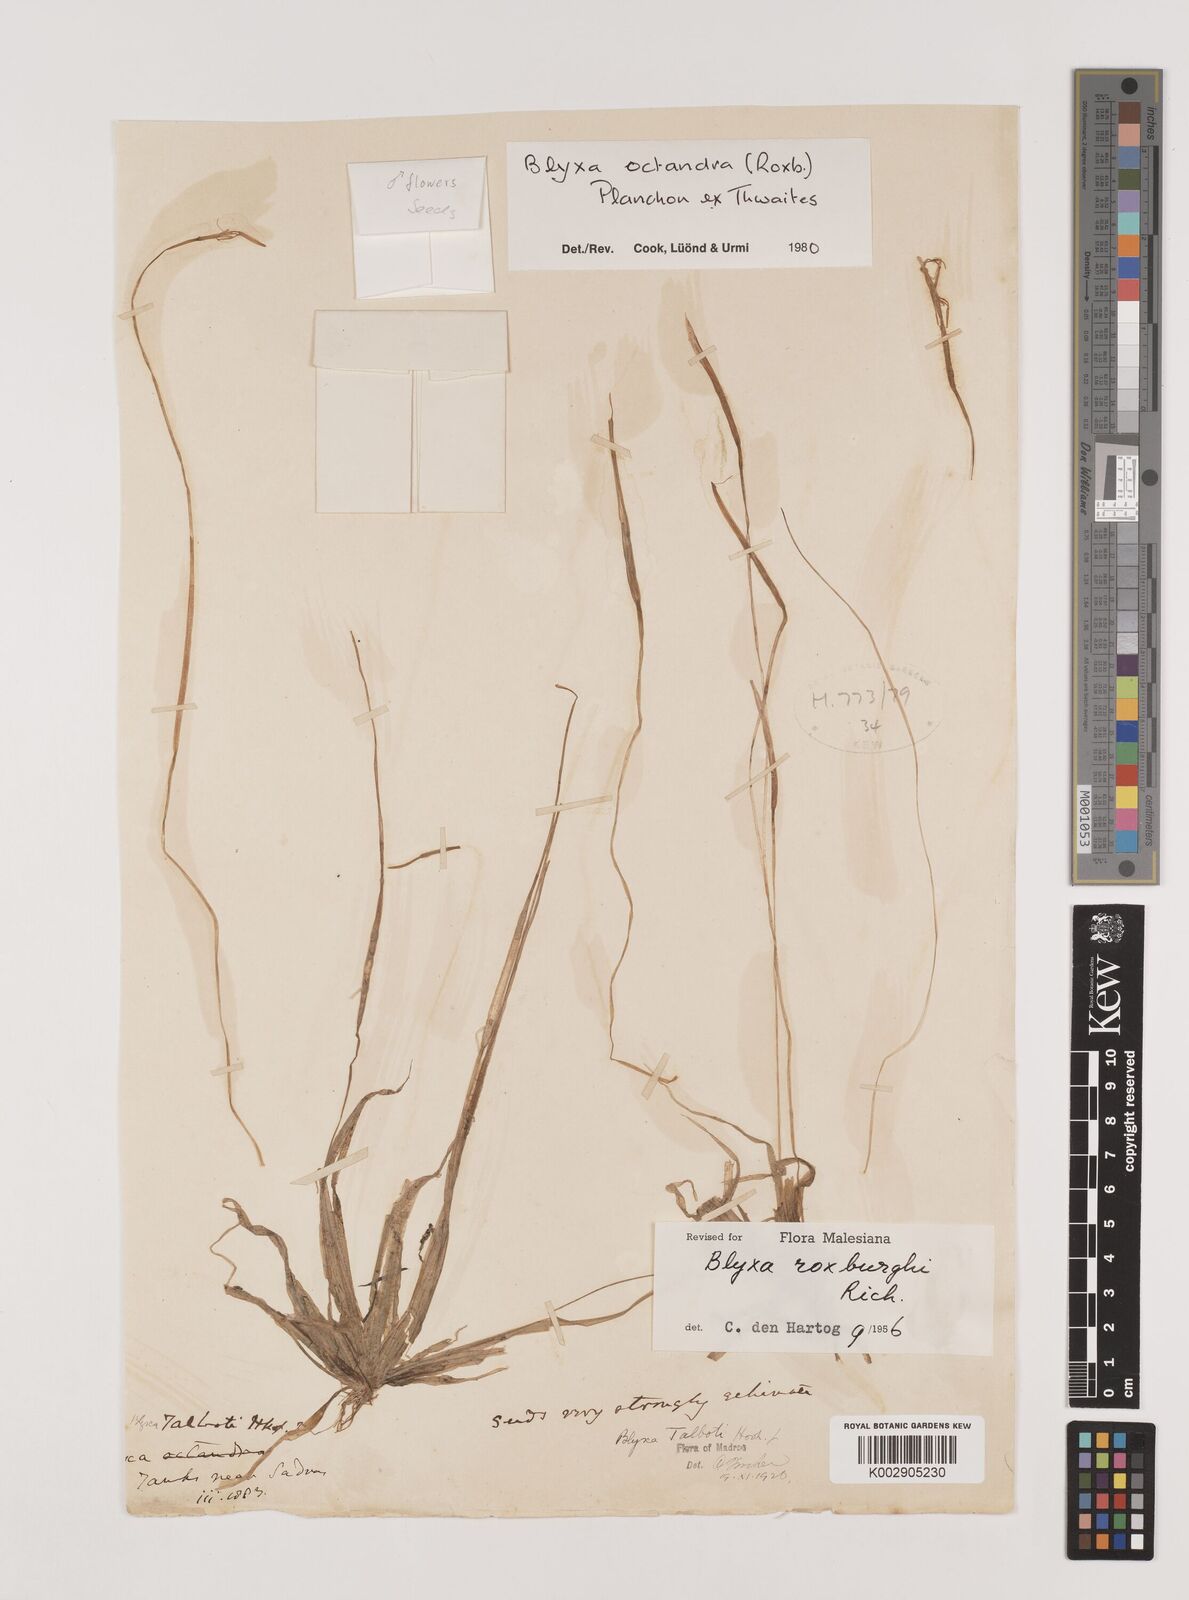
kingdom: Plantae
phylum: Tracheophyta
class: Liliopsida
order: Alismatales
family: Hydrocharitaceae
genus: Blyxa
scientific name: Blyxa octandra
